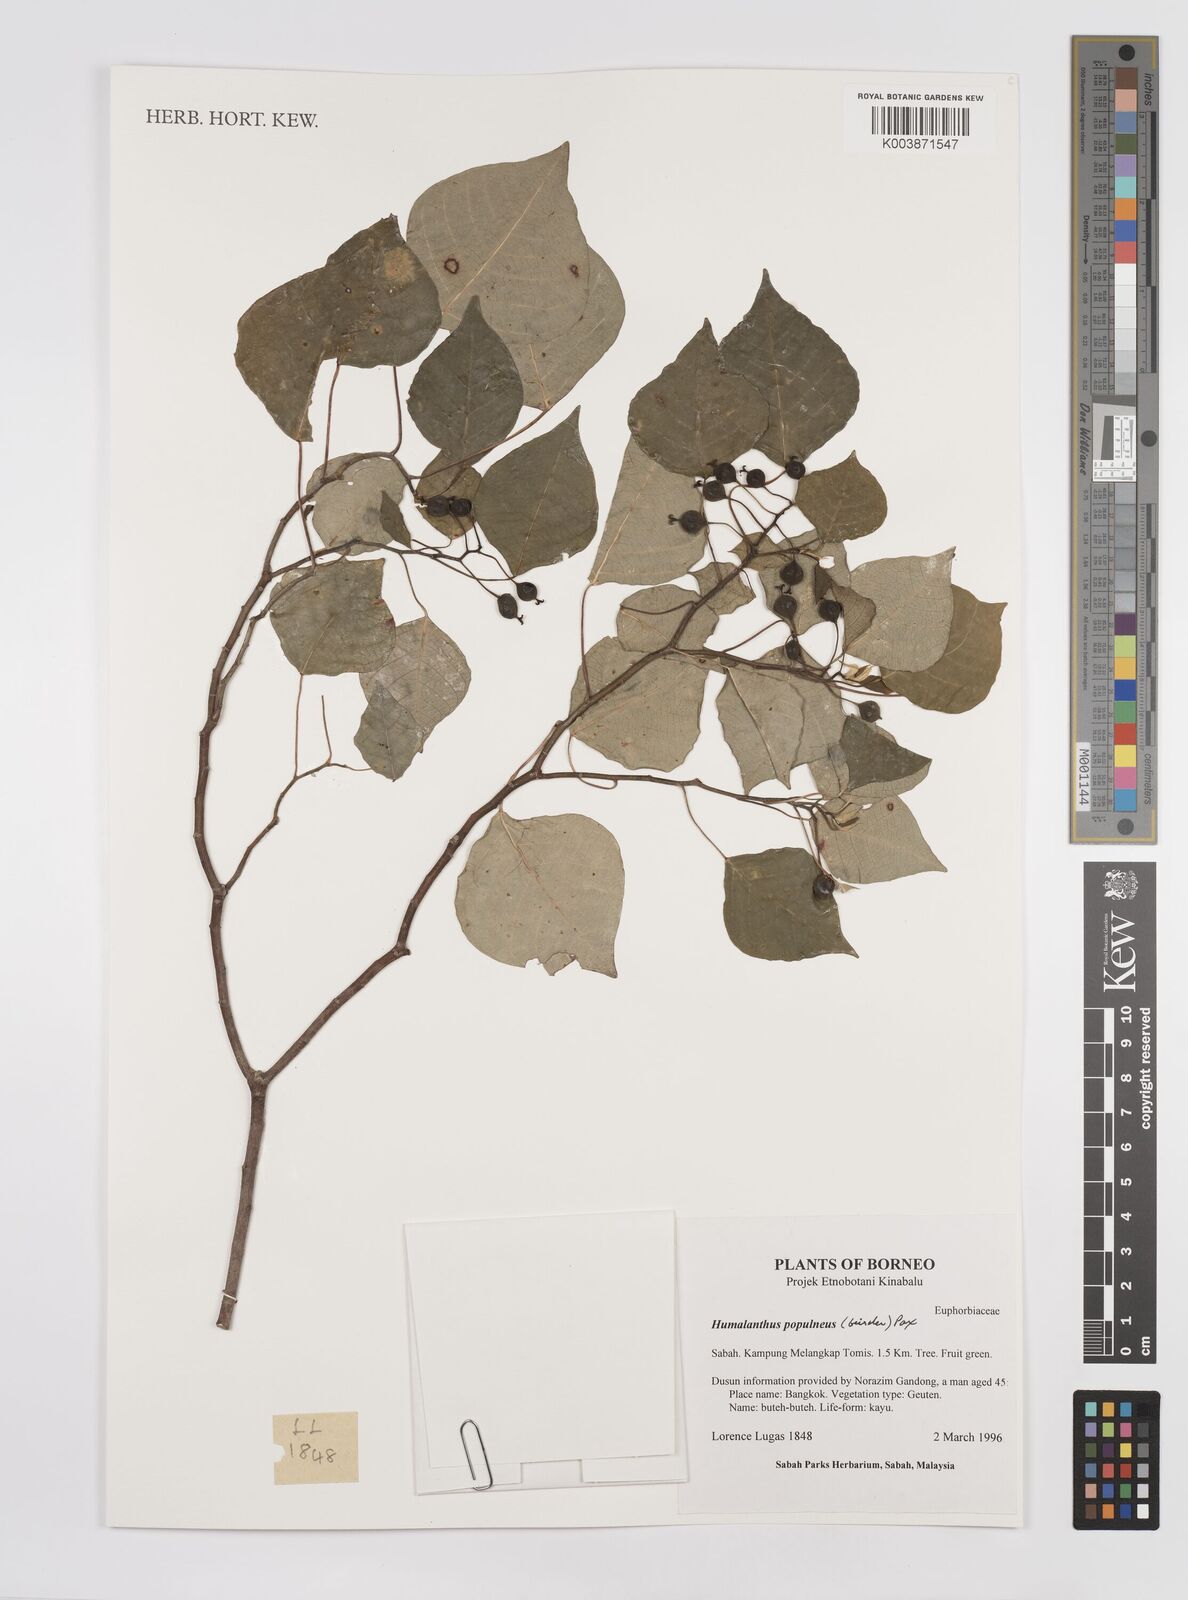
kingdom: Plantae
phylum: Tracheophyta
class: Magnoliopsida
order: Malpighiales
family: Euphorbiaceae
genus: Homalanthus
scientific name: Homalanthus populneus
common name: Spurge
